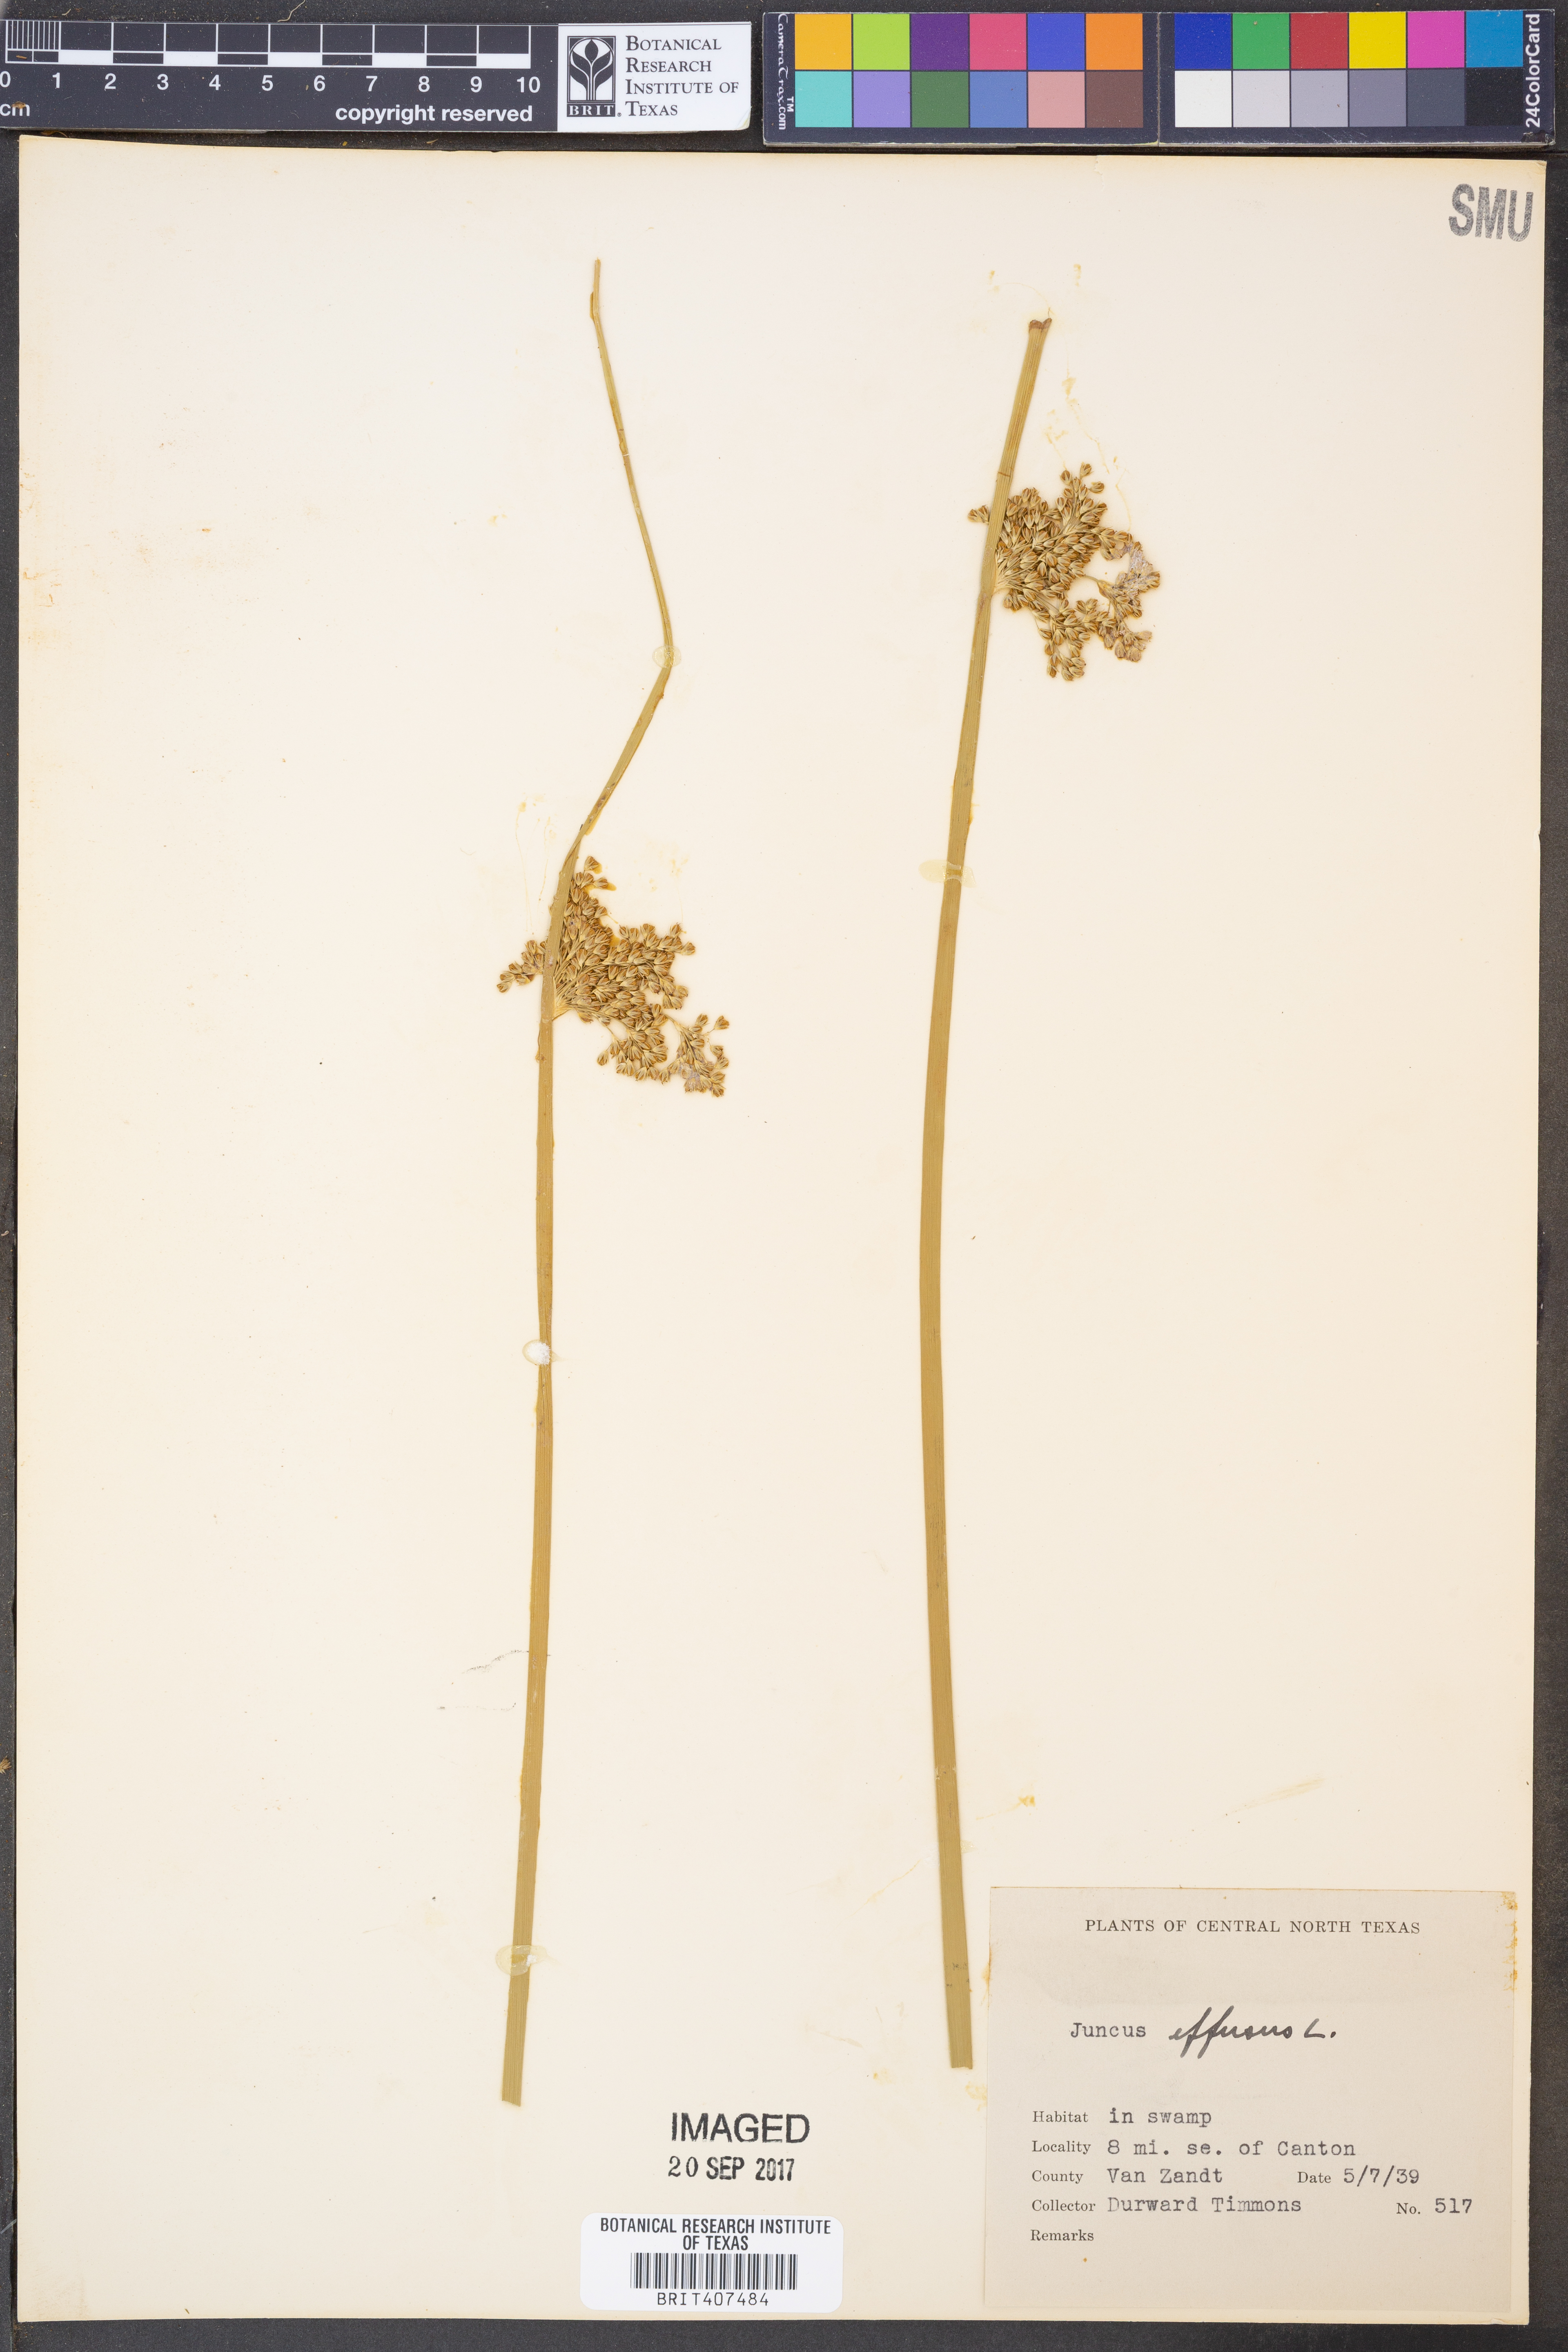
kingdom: Plantae
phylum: Tracheophyta
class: Liliopsida
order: Poales
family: Juncaceae
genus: Juncus
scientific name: Juncus effusus
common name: Soft rush
